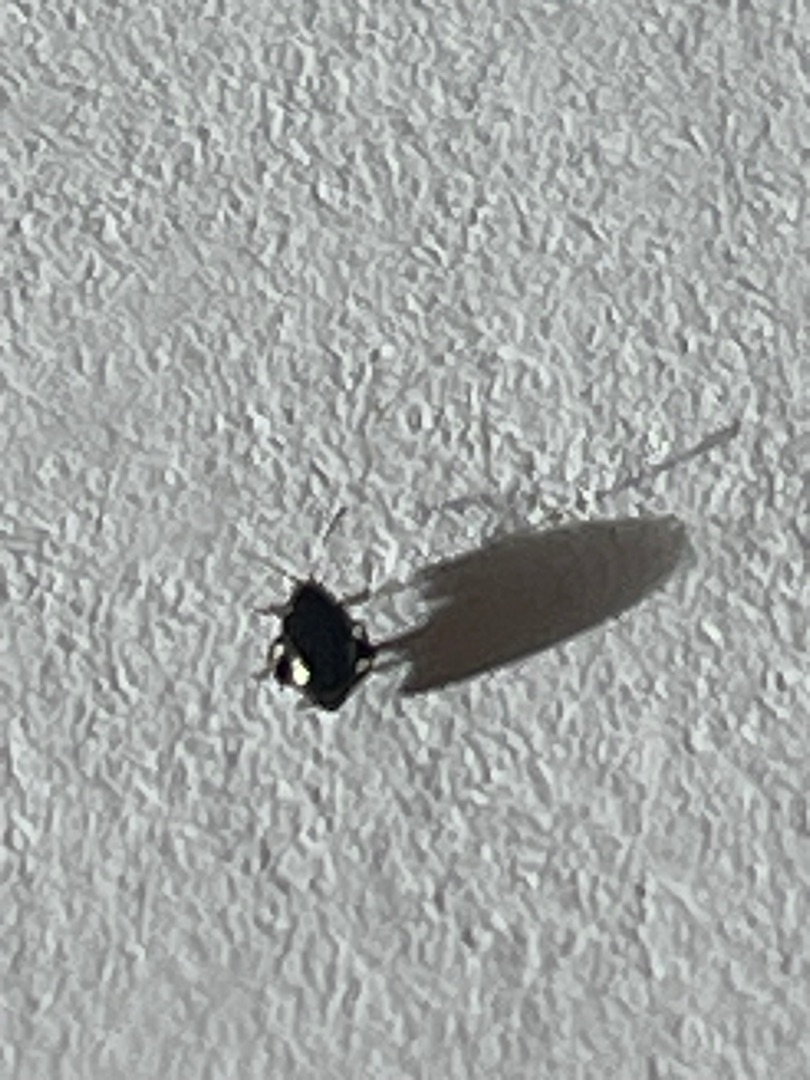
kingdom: Animalia
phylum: Arthropoda
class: Insecta
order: Coleoptera
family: Chrysomelidae
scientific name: Chrysomelidae
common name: Bladbiller
